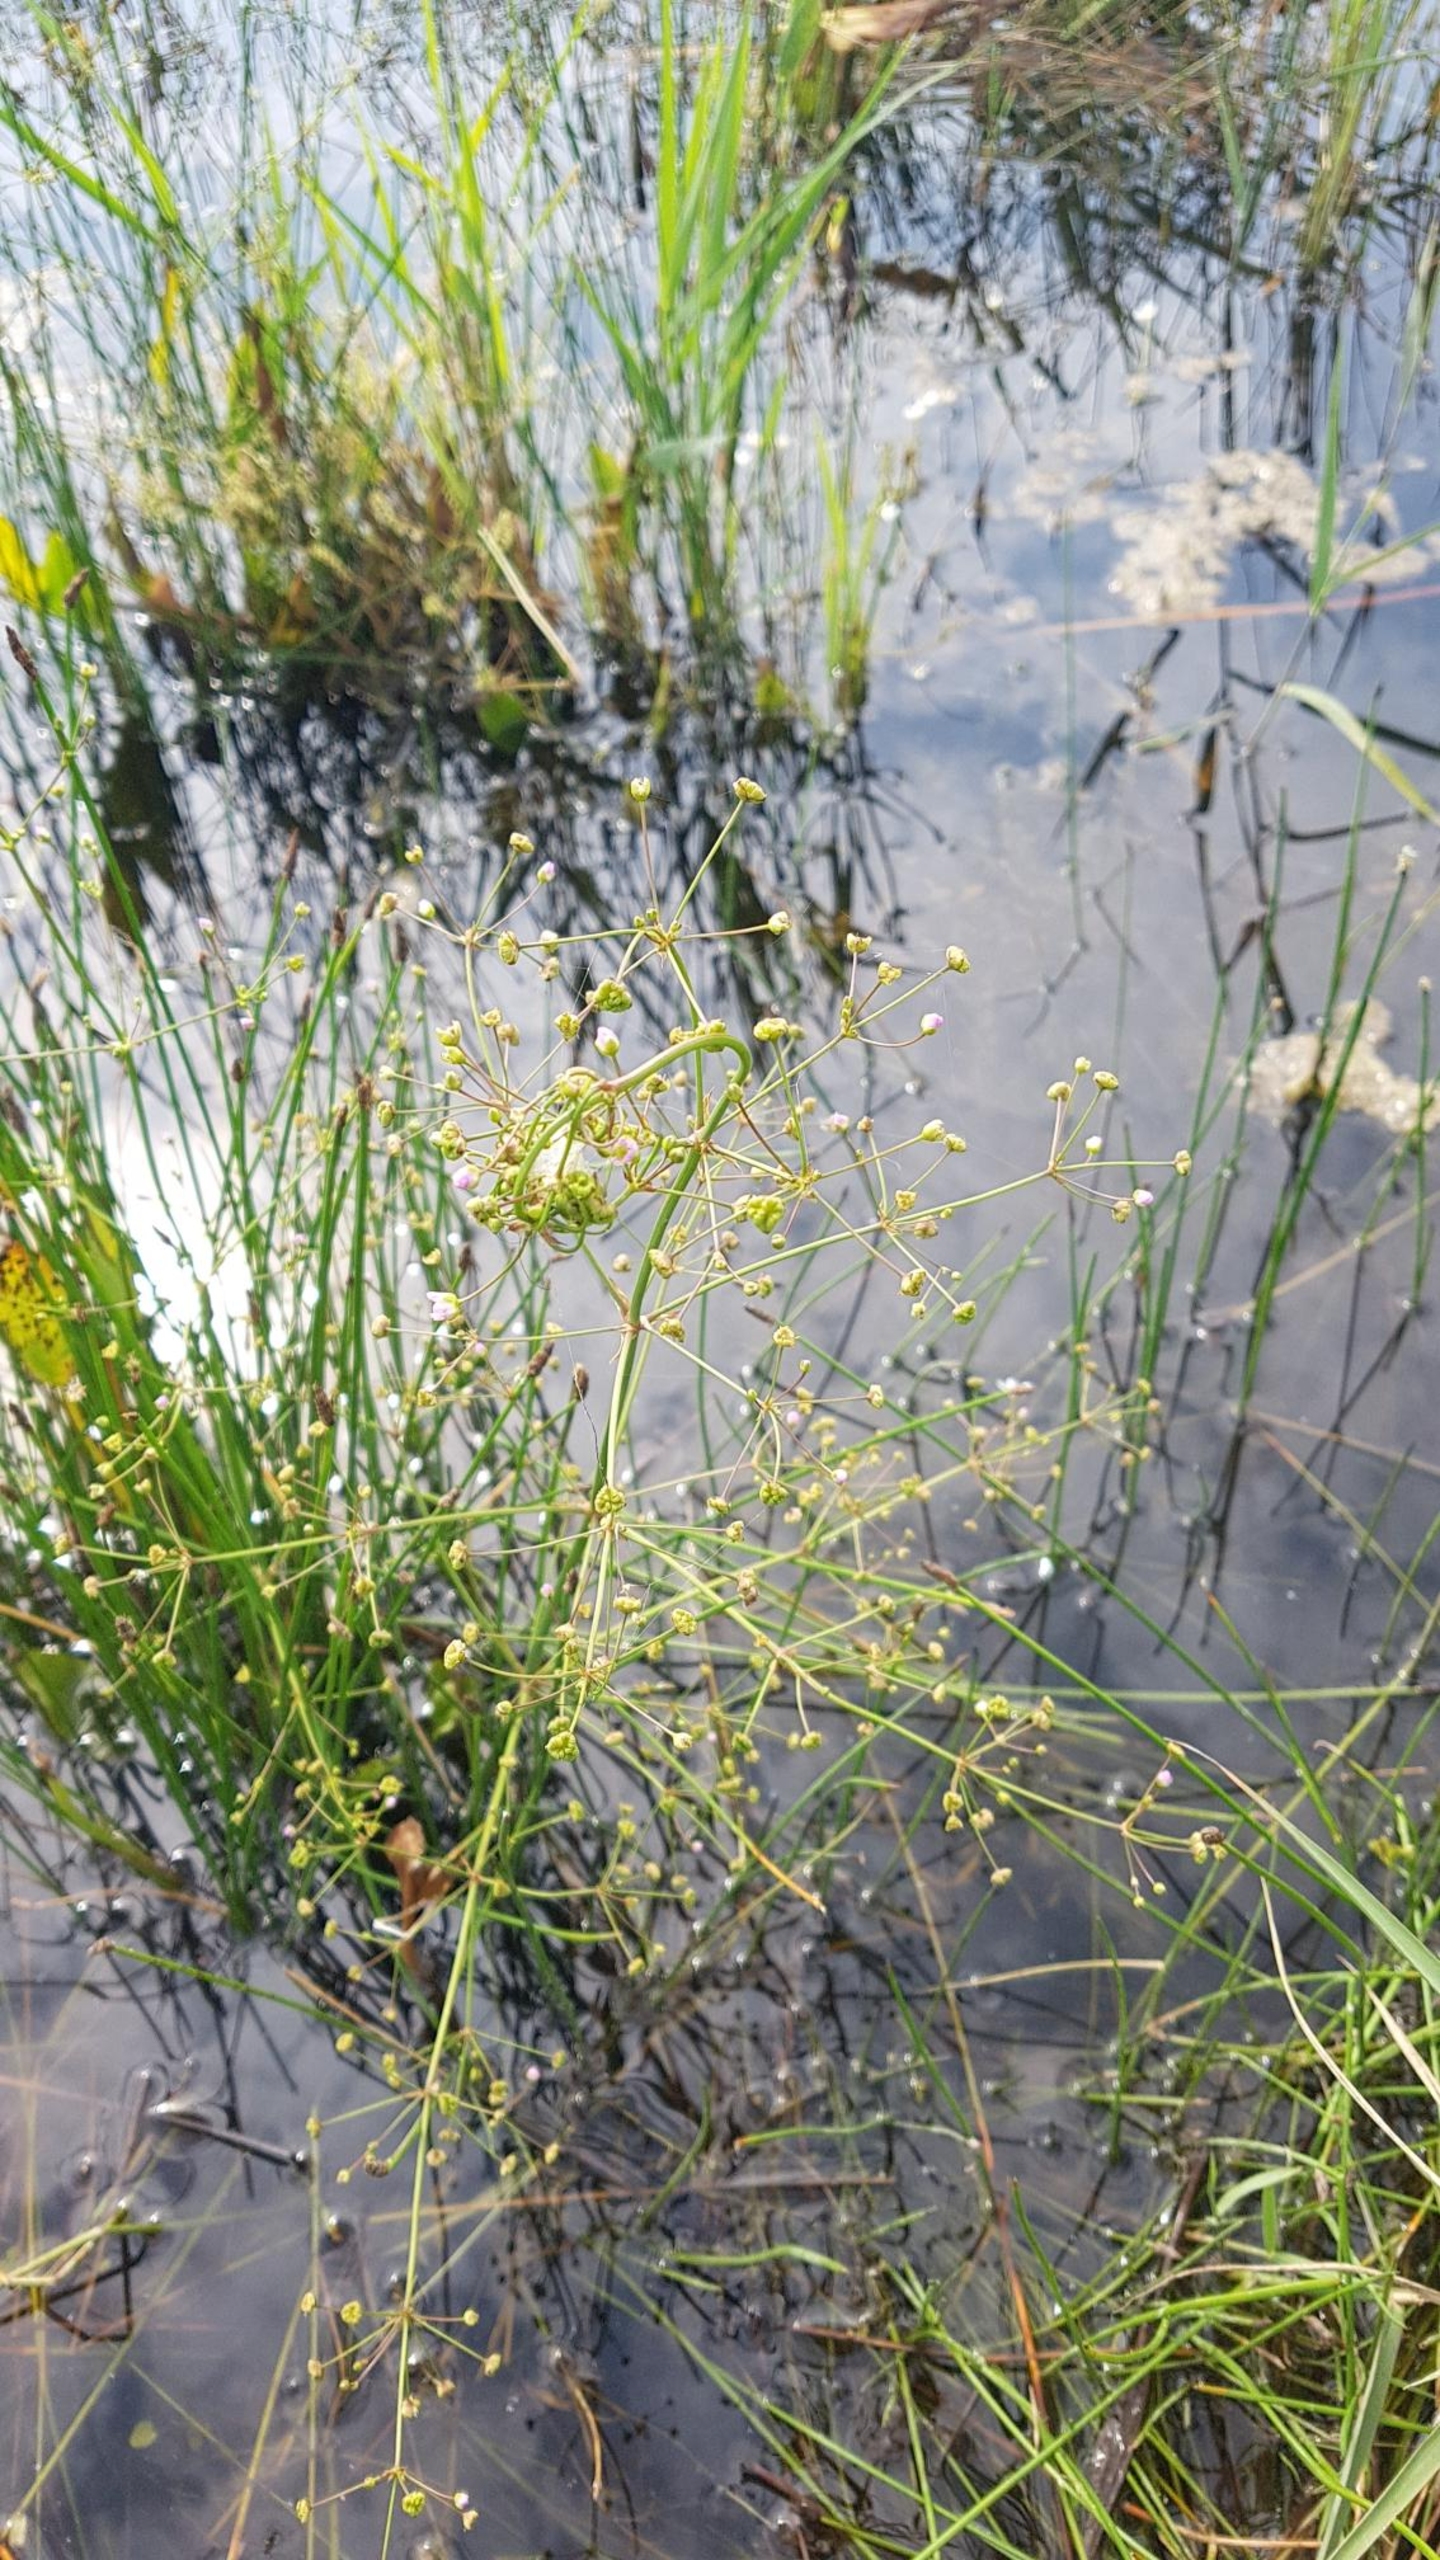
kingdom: Plantae
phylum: Tracheophyta
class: Liliopsida
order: Alismatales
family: Alismataceae
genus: Alisma
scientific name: Alisma plantago-aquatica
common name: Vejbred-skeblad
